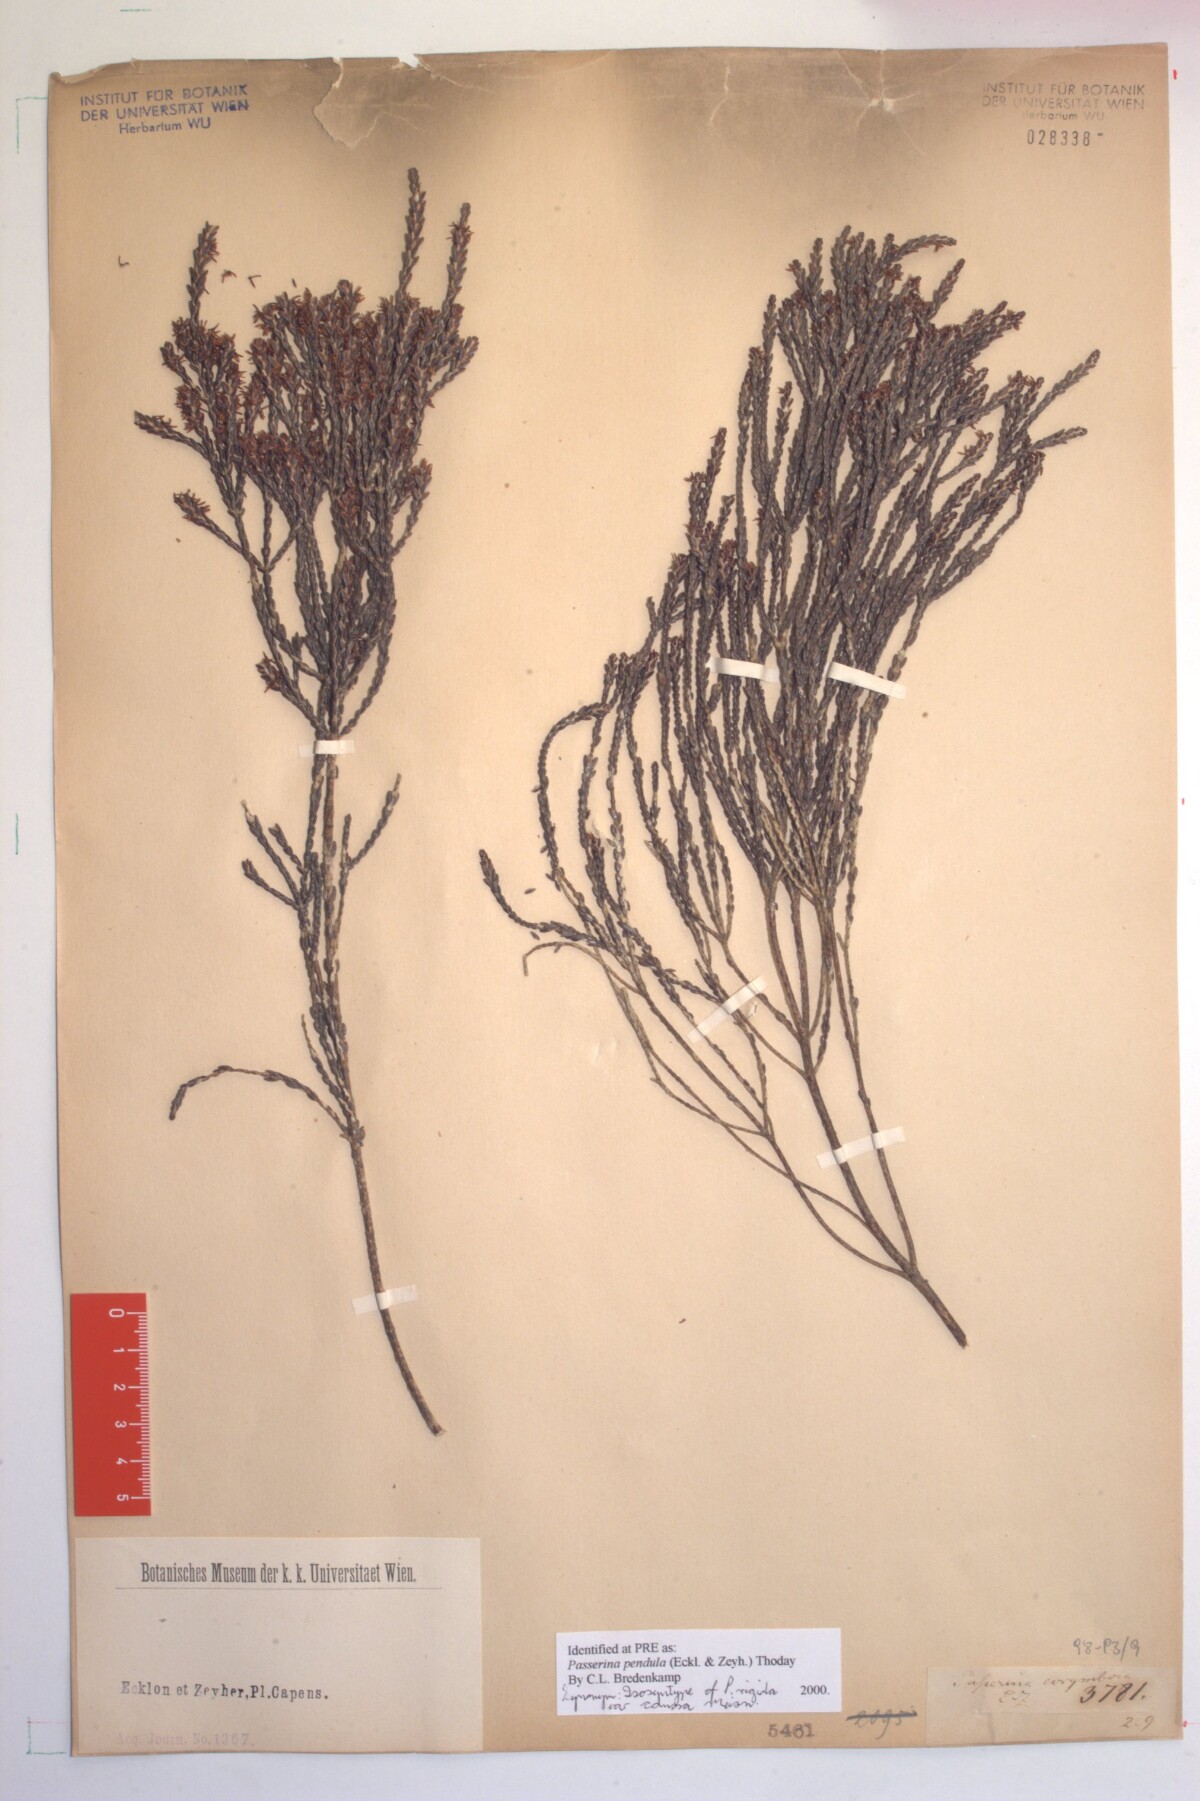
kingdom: Plantae
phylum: Tracheophyta
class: Magnoliopsida
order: Malvales
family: Thymelaeaceae
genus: Passerina
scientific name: Passerina pendula
